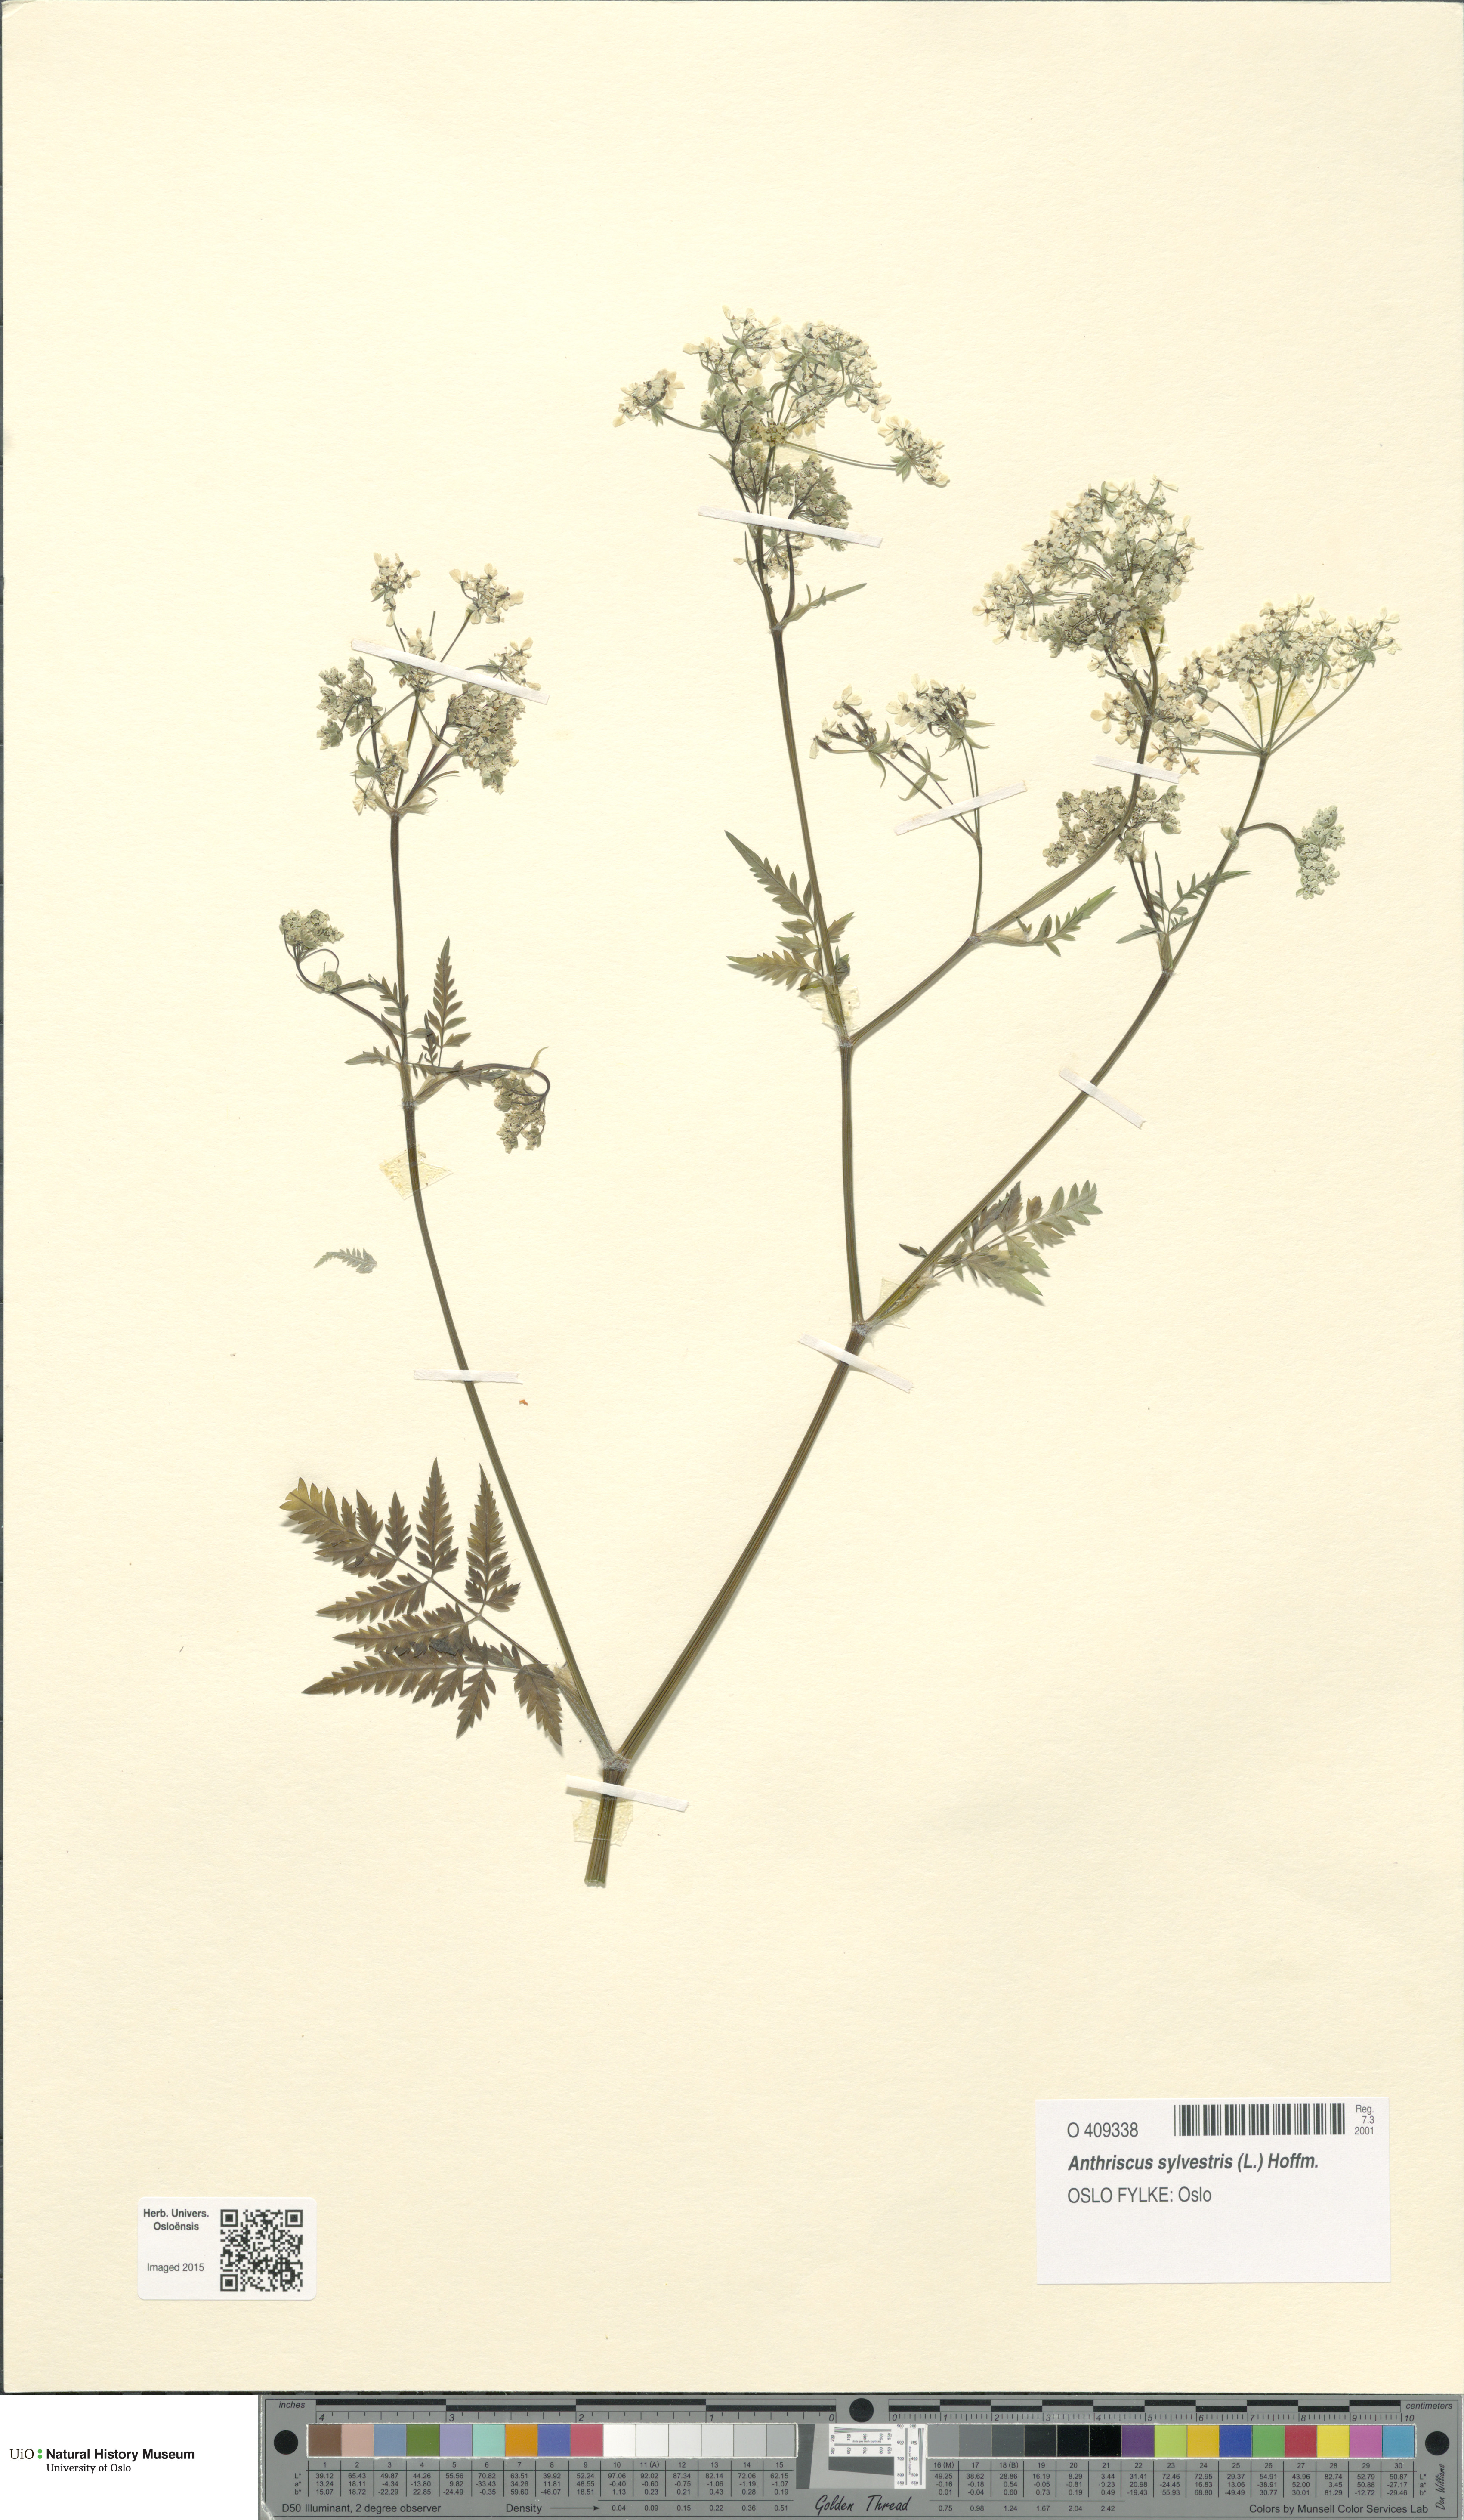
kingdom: Plantae
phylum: Tracheophyta
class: Magnoliopsida
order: Apiales
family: Apiaceae
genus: Anthriscus
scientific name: Anthriscus sylvestris
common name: Cow parsley
